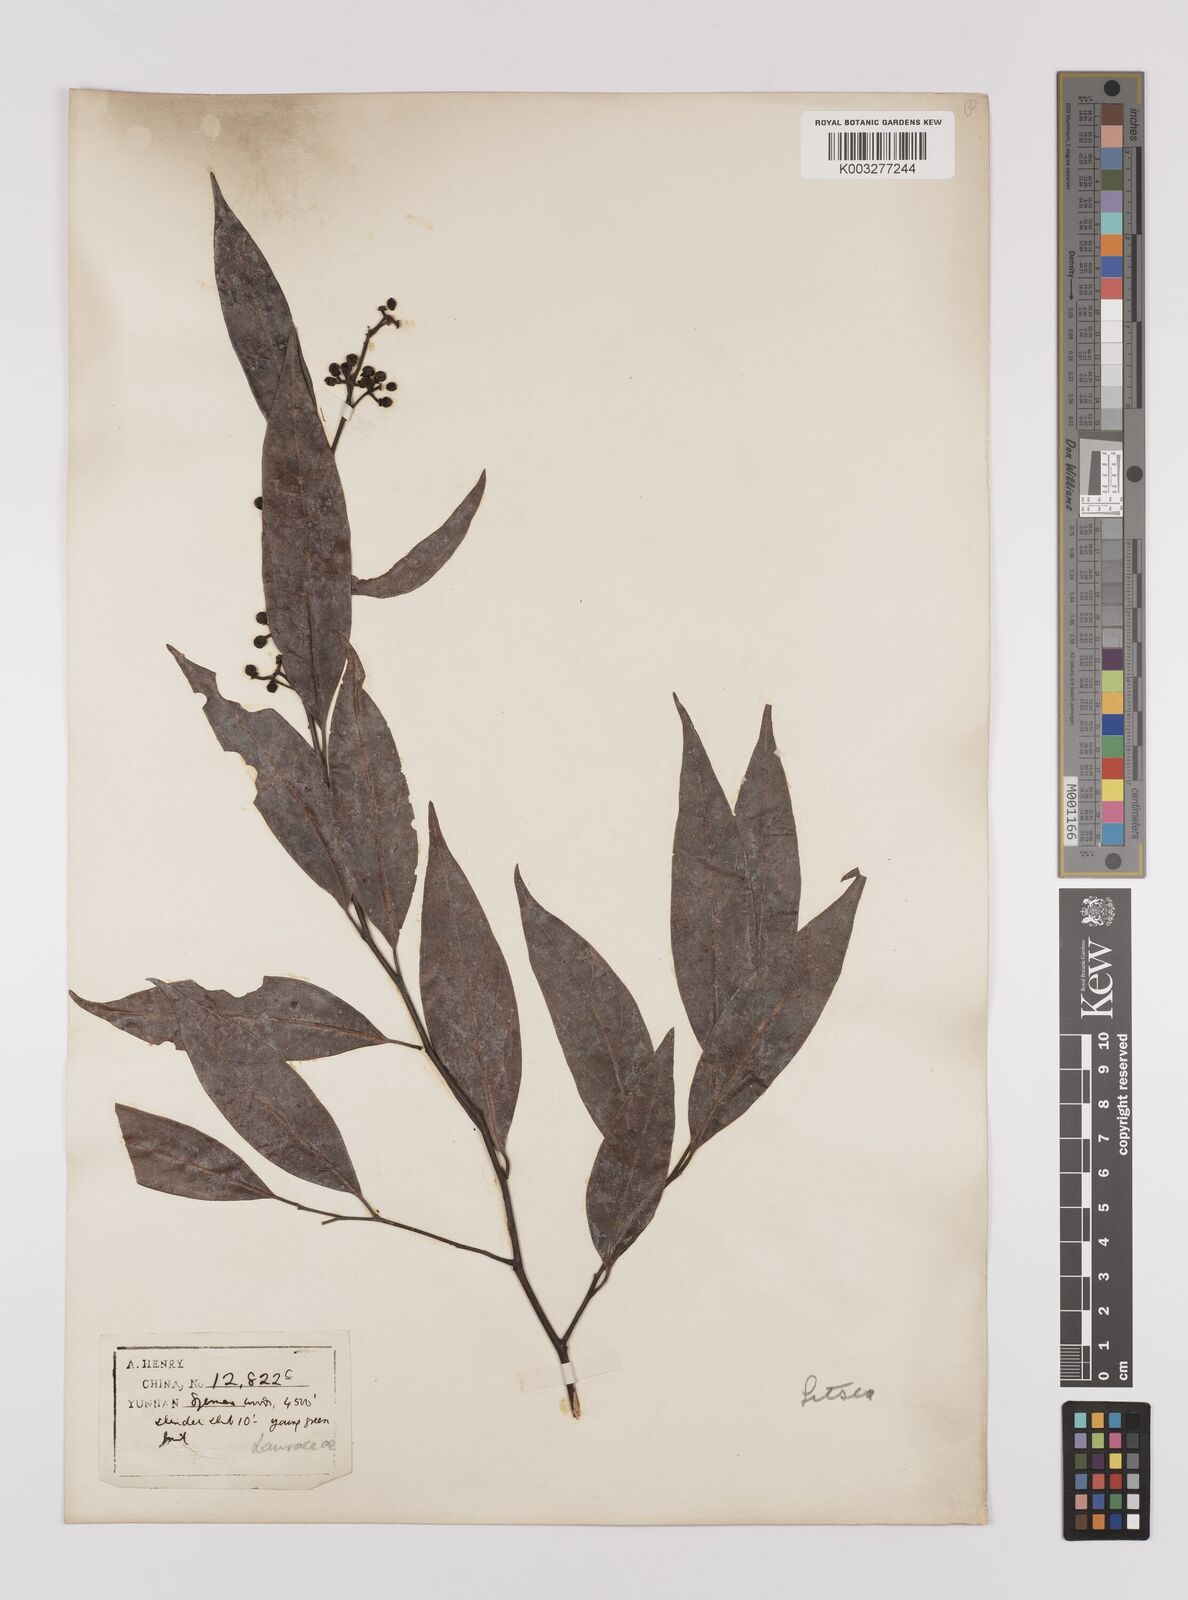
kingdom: Plantae
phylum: Tracheophyta
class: Magnoliopsida
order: Laurales
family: Lauraceae
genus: Lindera
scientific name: Lindera pipericarpa
